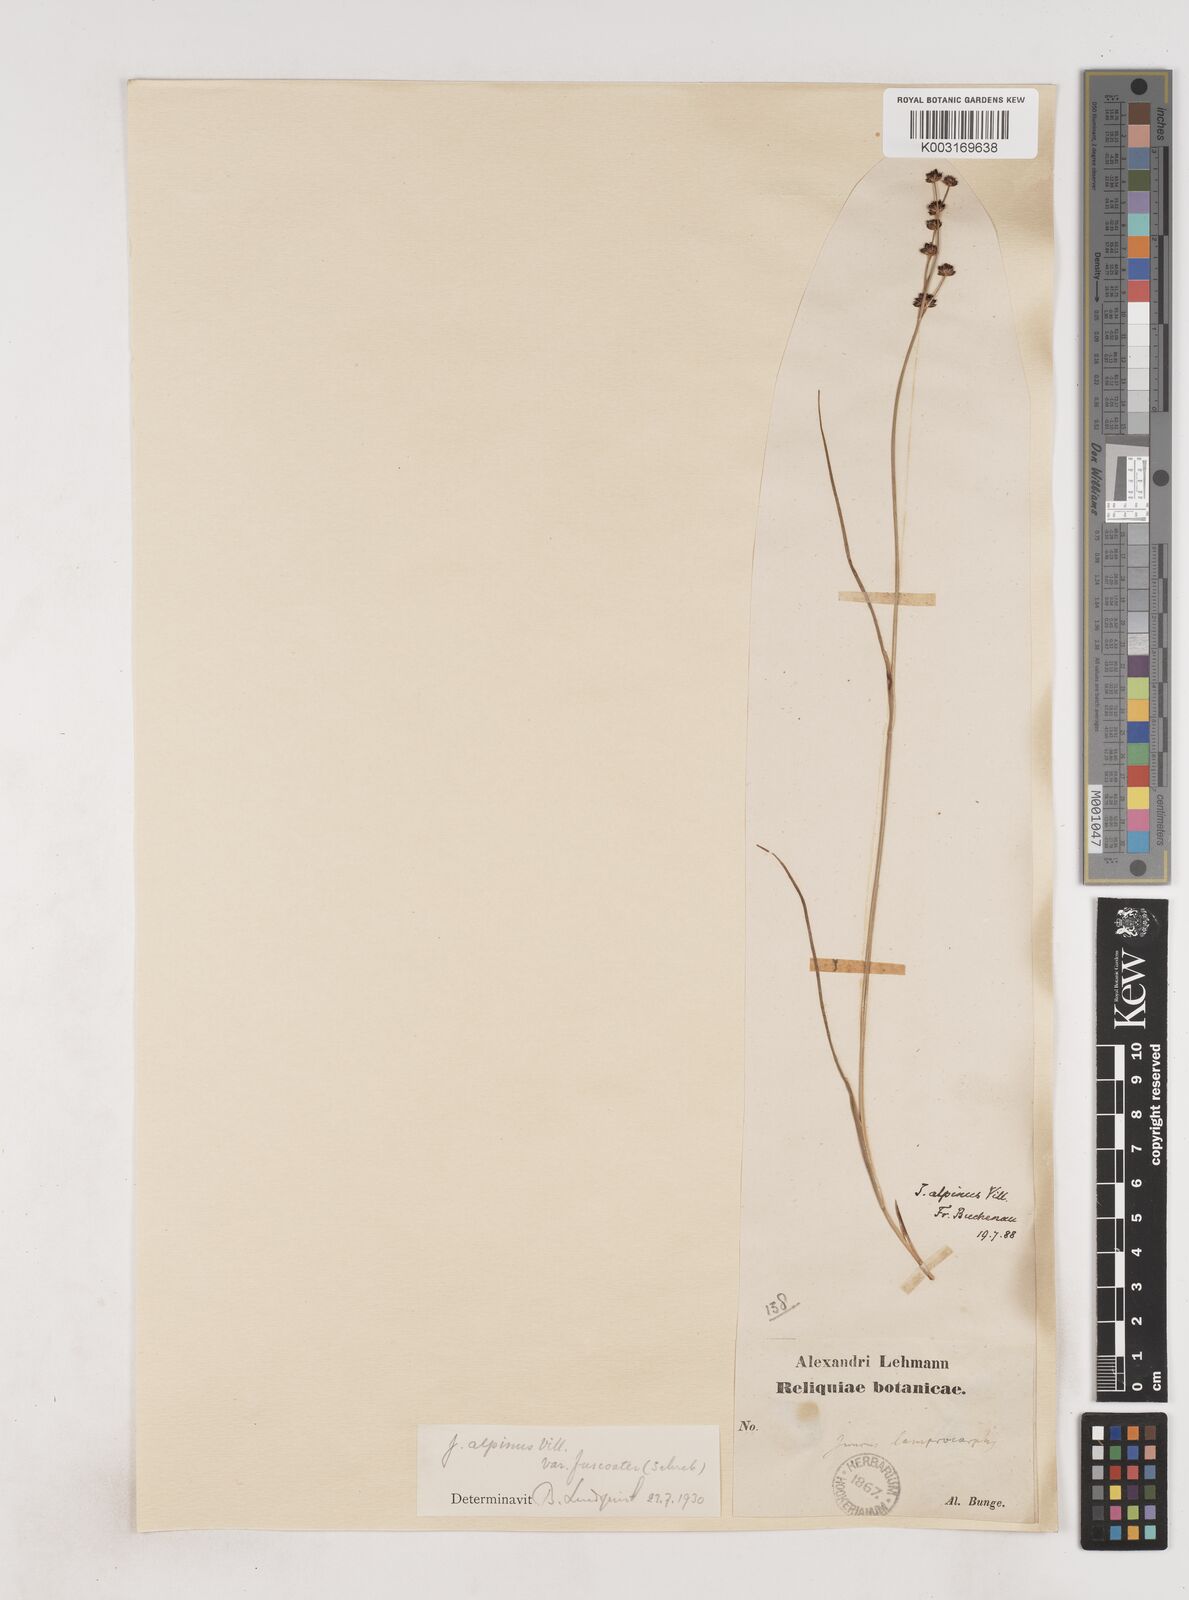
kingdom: Plantae
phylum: Tracheophyta
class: Liliopsida
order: Poales
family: Juncaceae
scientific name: Juncaceae
